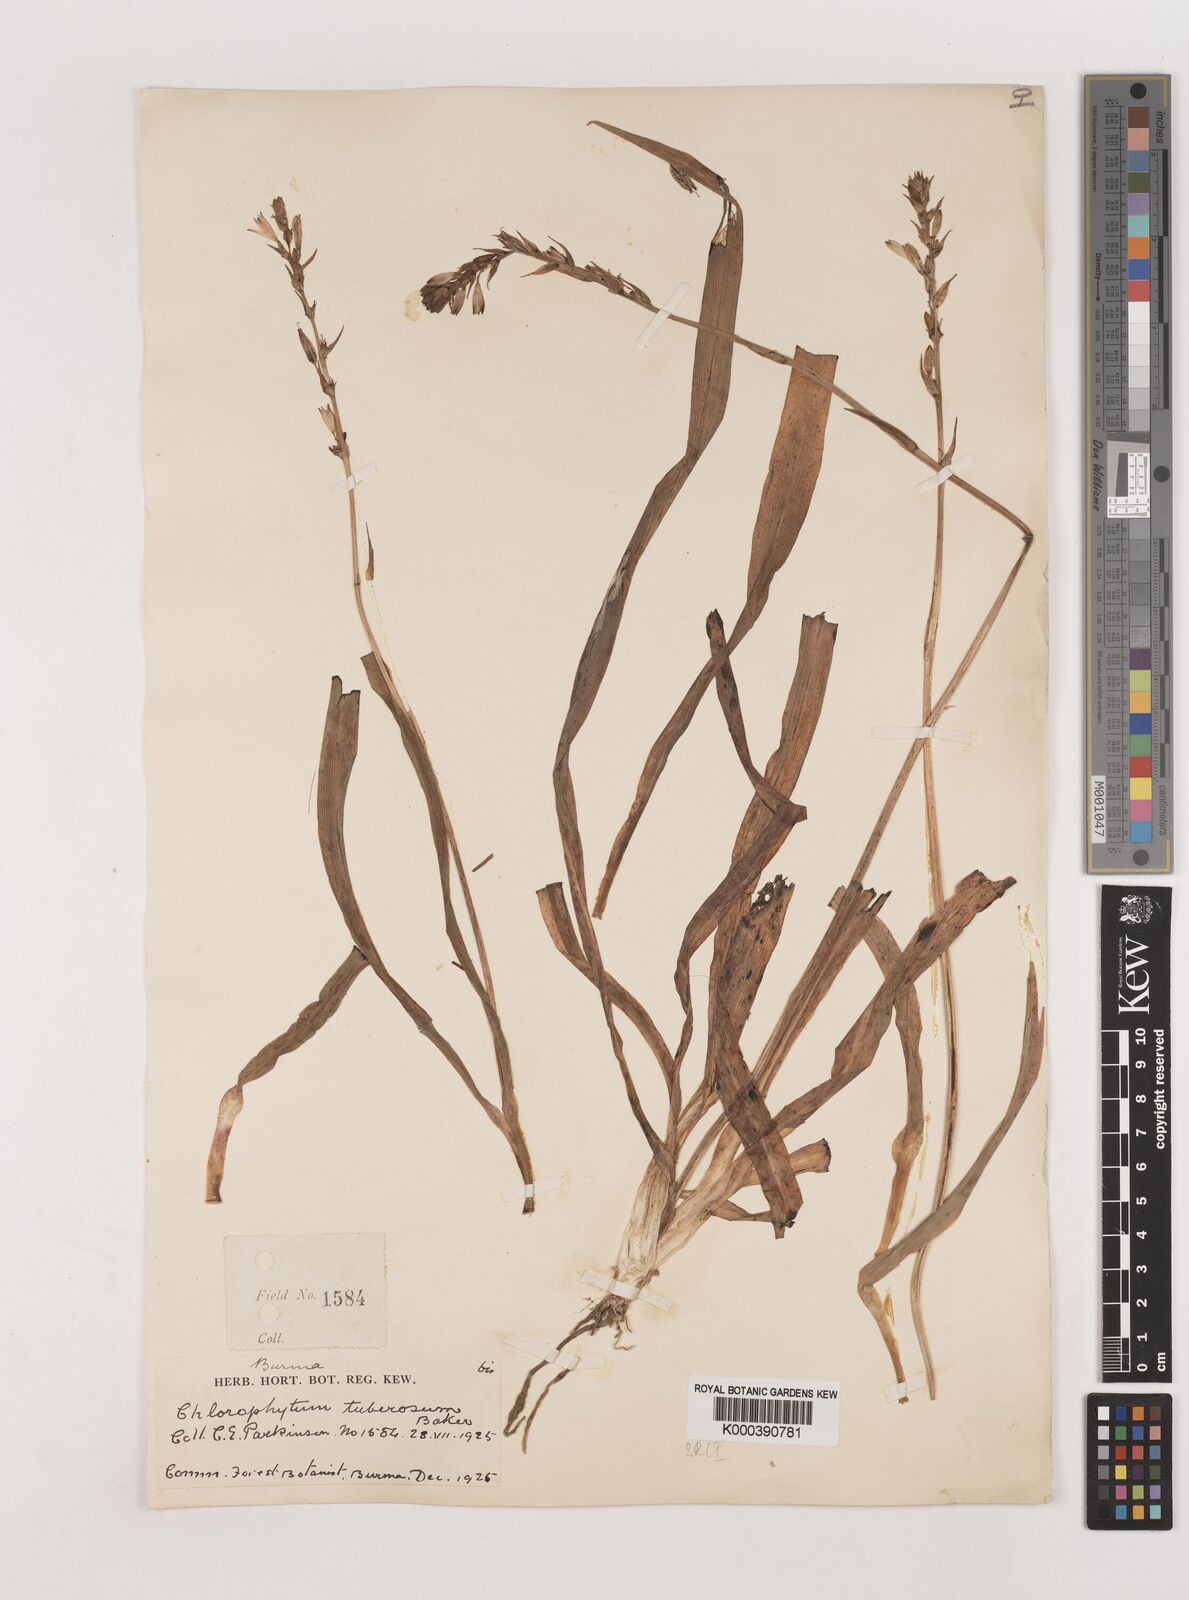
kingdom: Plantae
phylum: Tracheophyta
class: Liliopsida
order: Asparagales
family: Asparagaceae
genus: Chlorophytum
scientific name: Chlorophytum tuberosum
